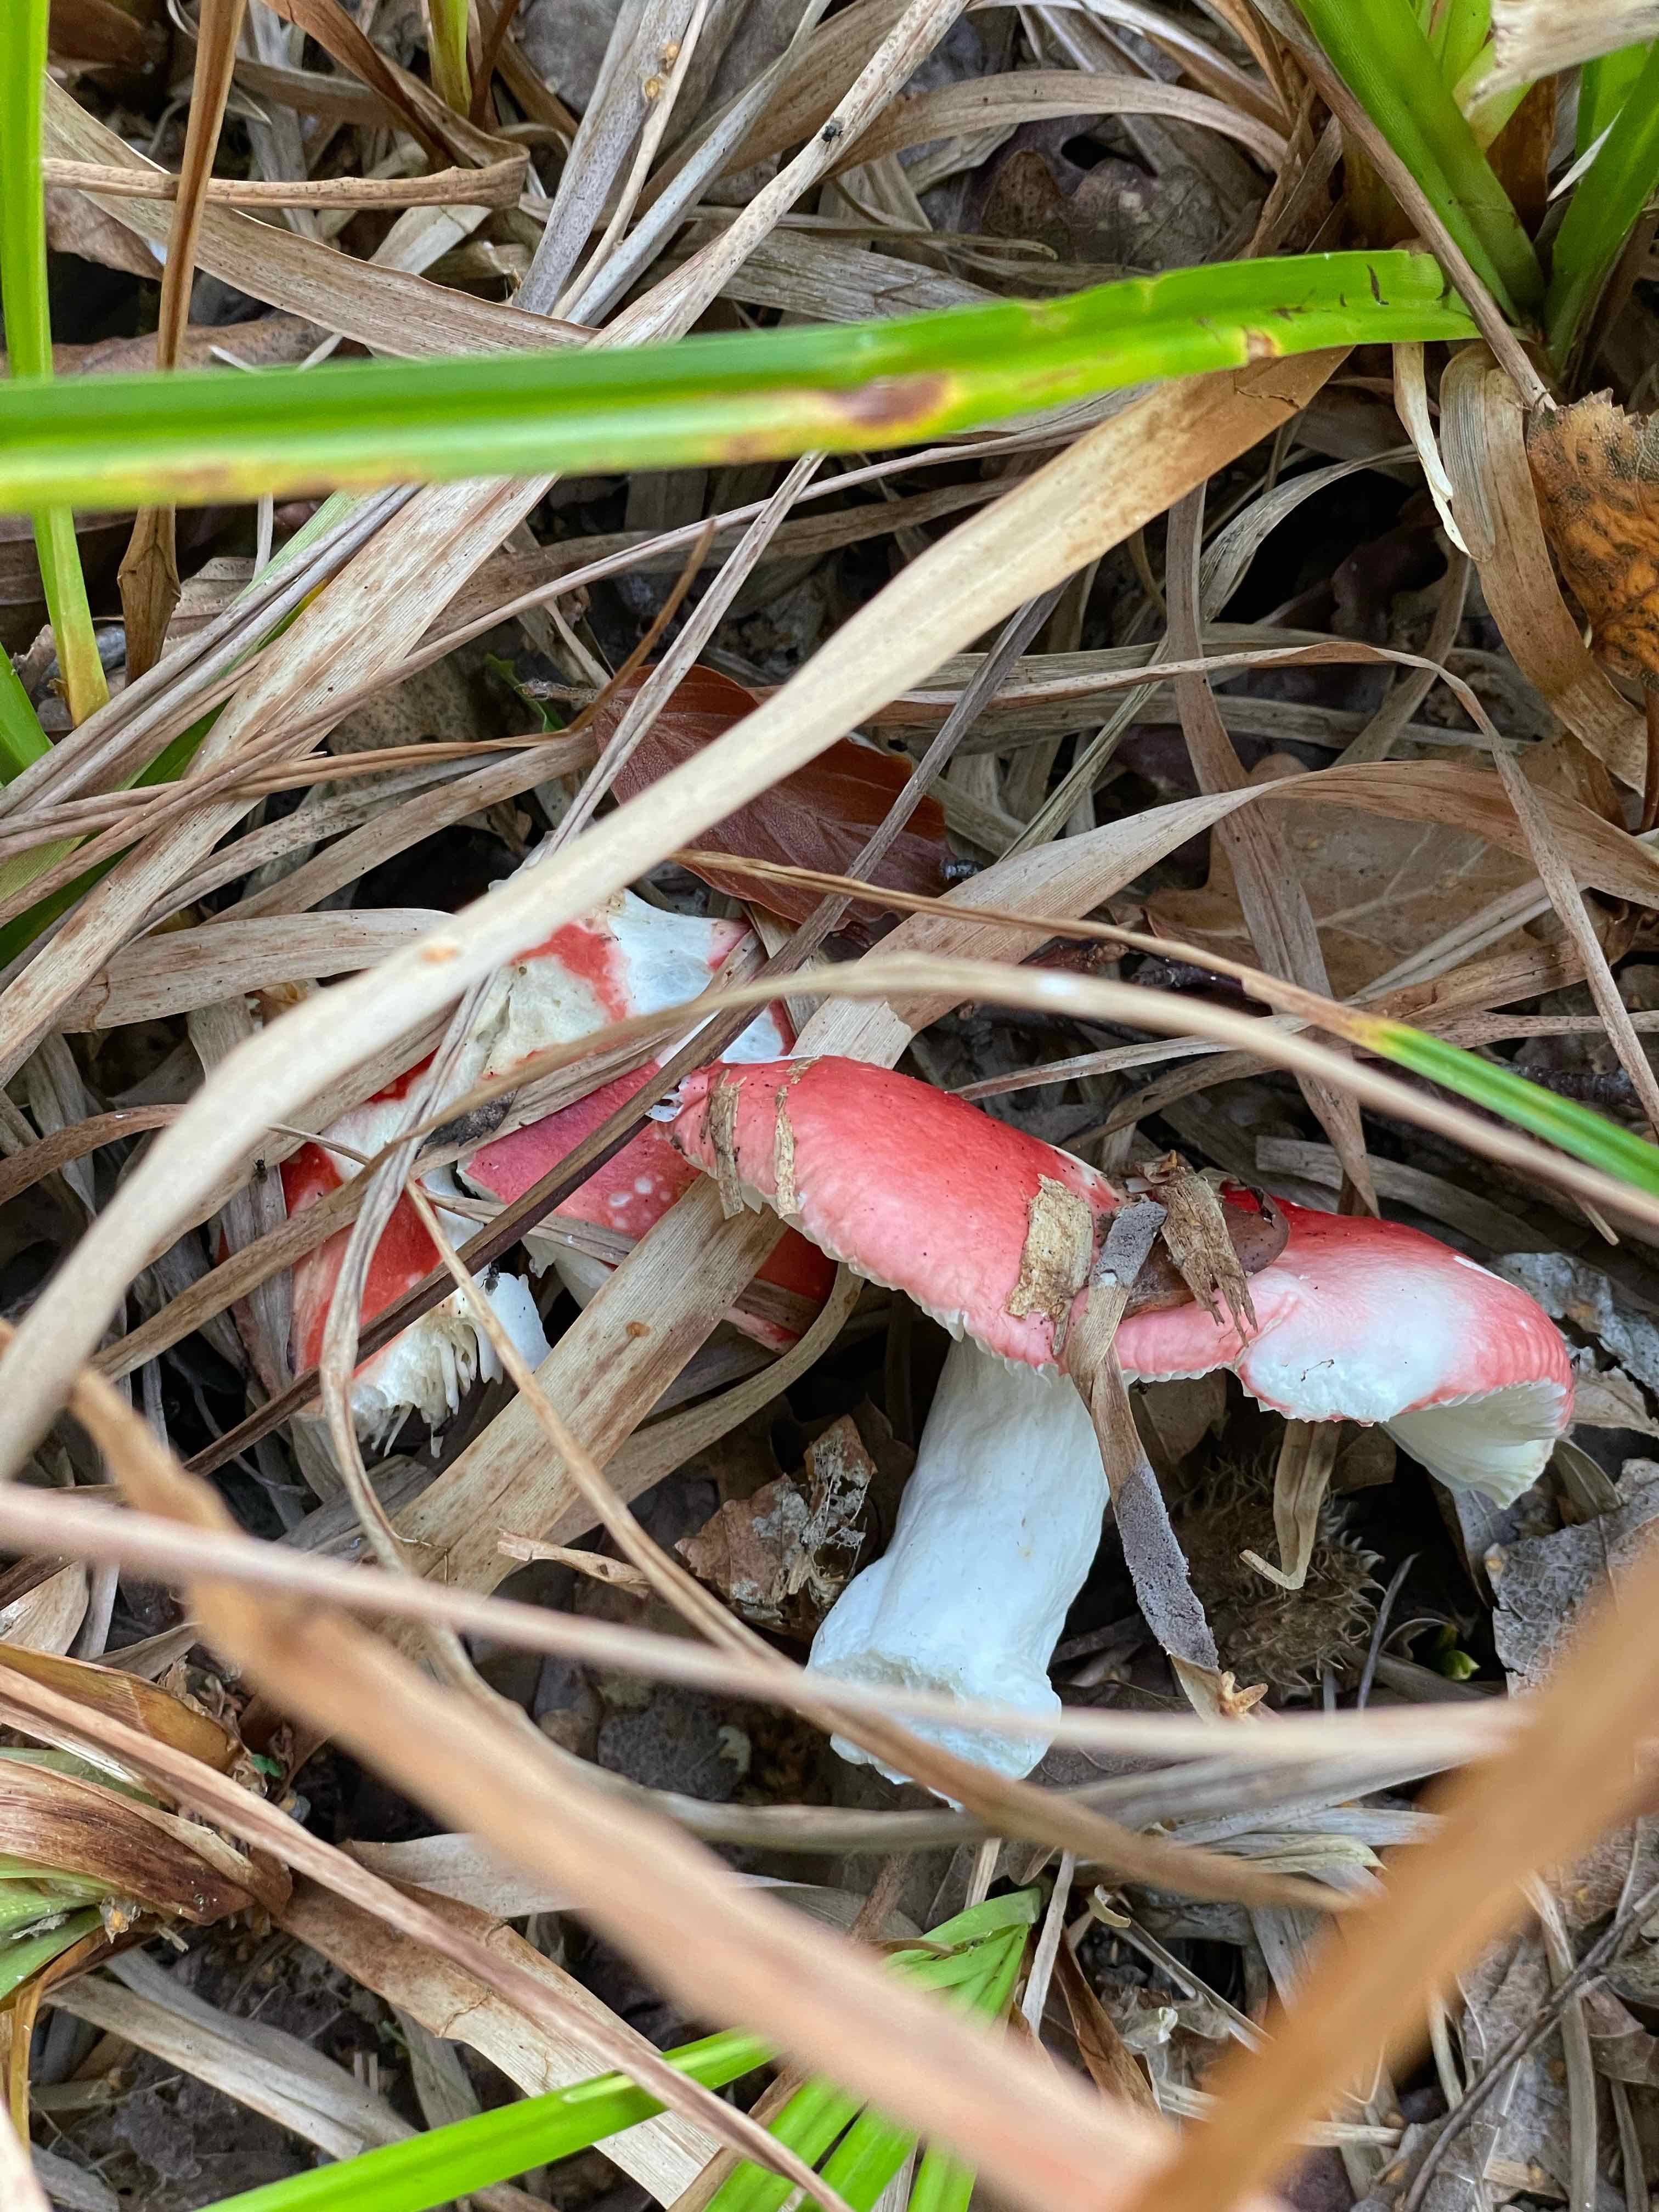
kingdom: Fungi
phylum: Basidiomycota
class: Agaricomycetes
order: Russulales
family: Russulaceae
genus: Russula
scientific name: Russula
